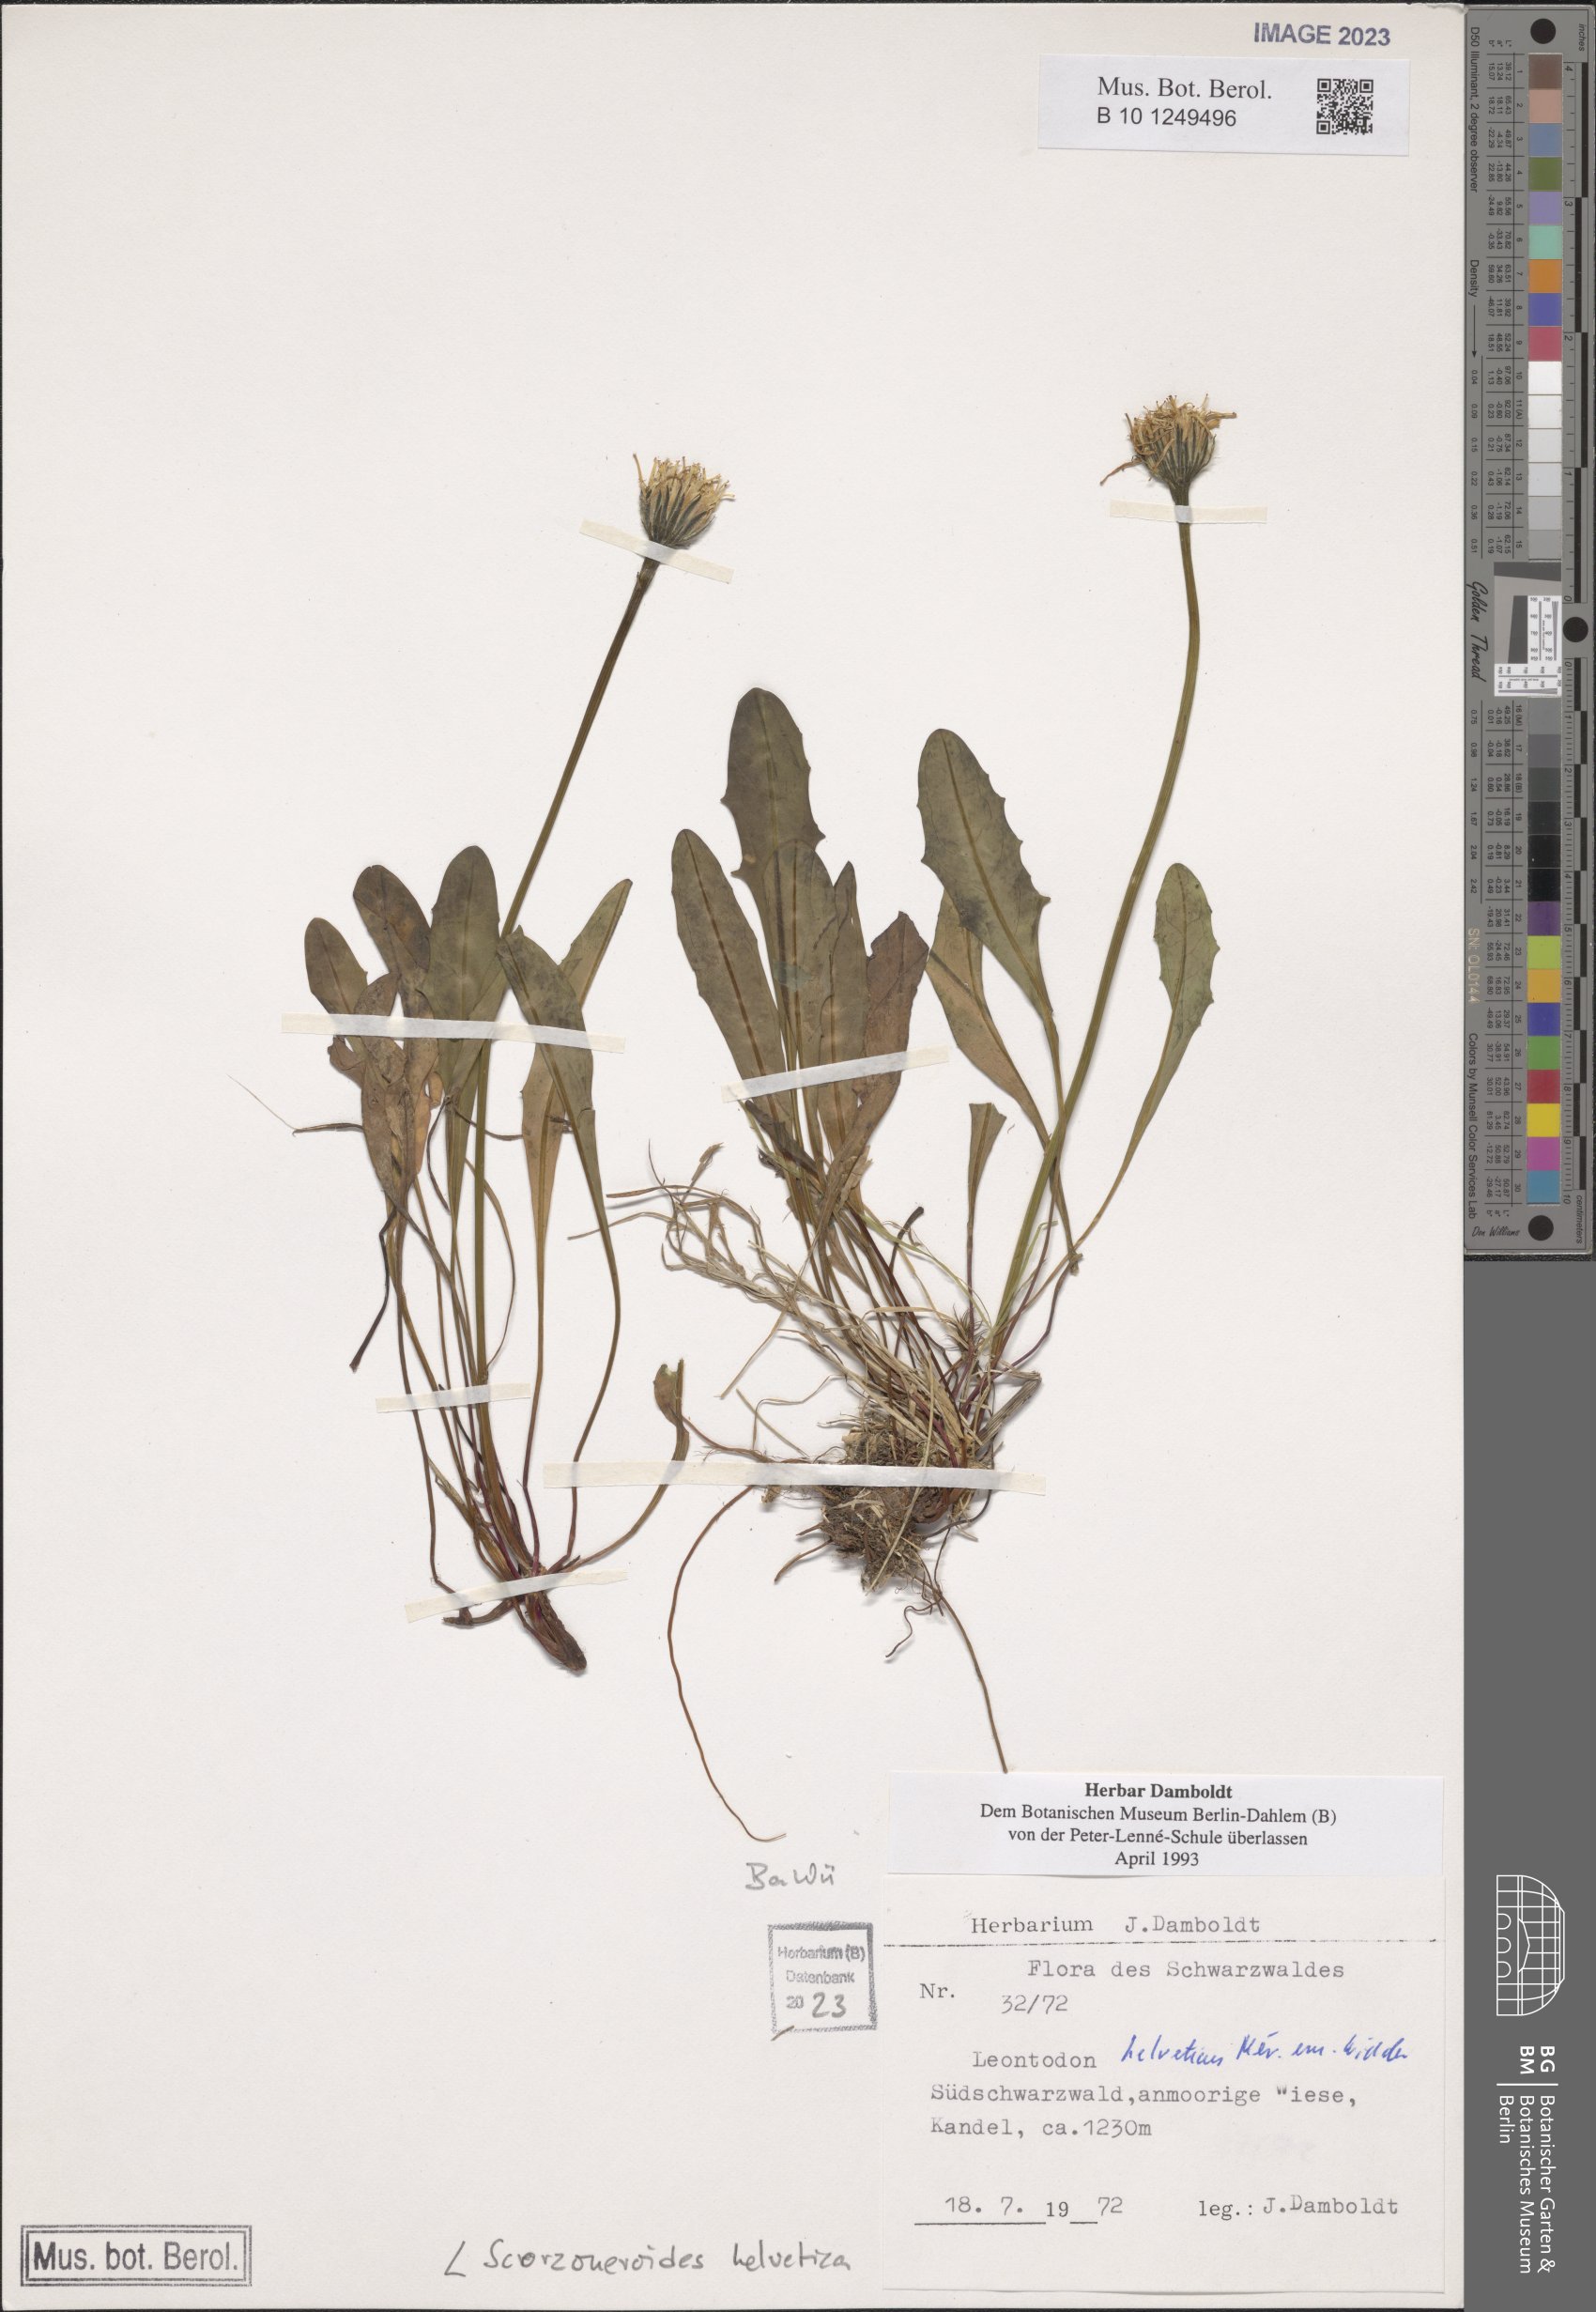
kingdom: Plantae
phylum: Tracheophyta
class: Magnoliopsida
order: Asterales
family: Asteraceae
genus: Scorzoneroides
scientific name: Scorzoneroides helvetica
